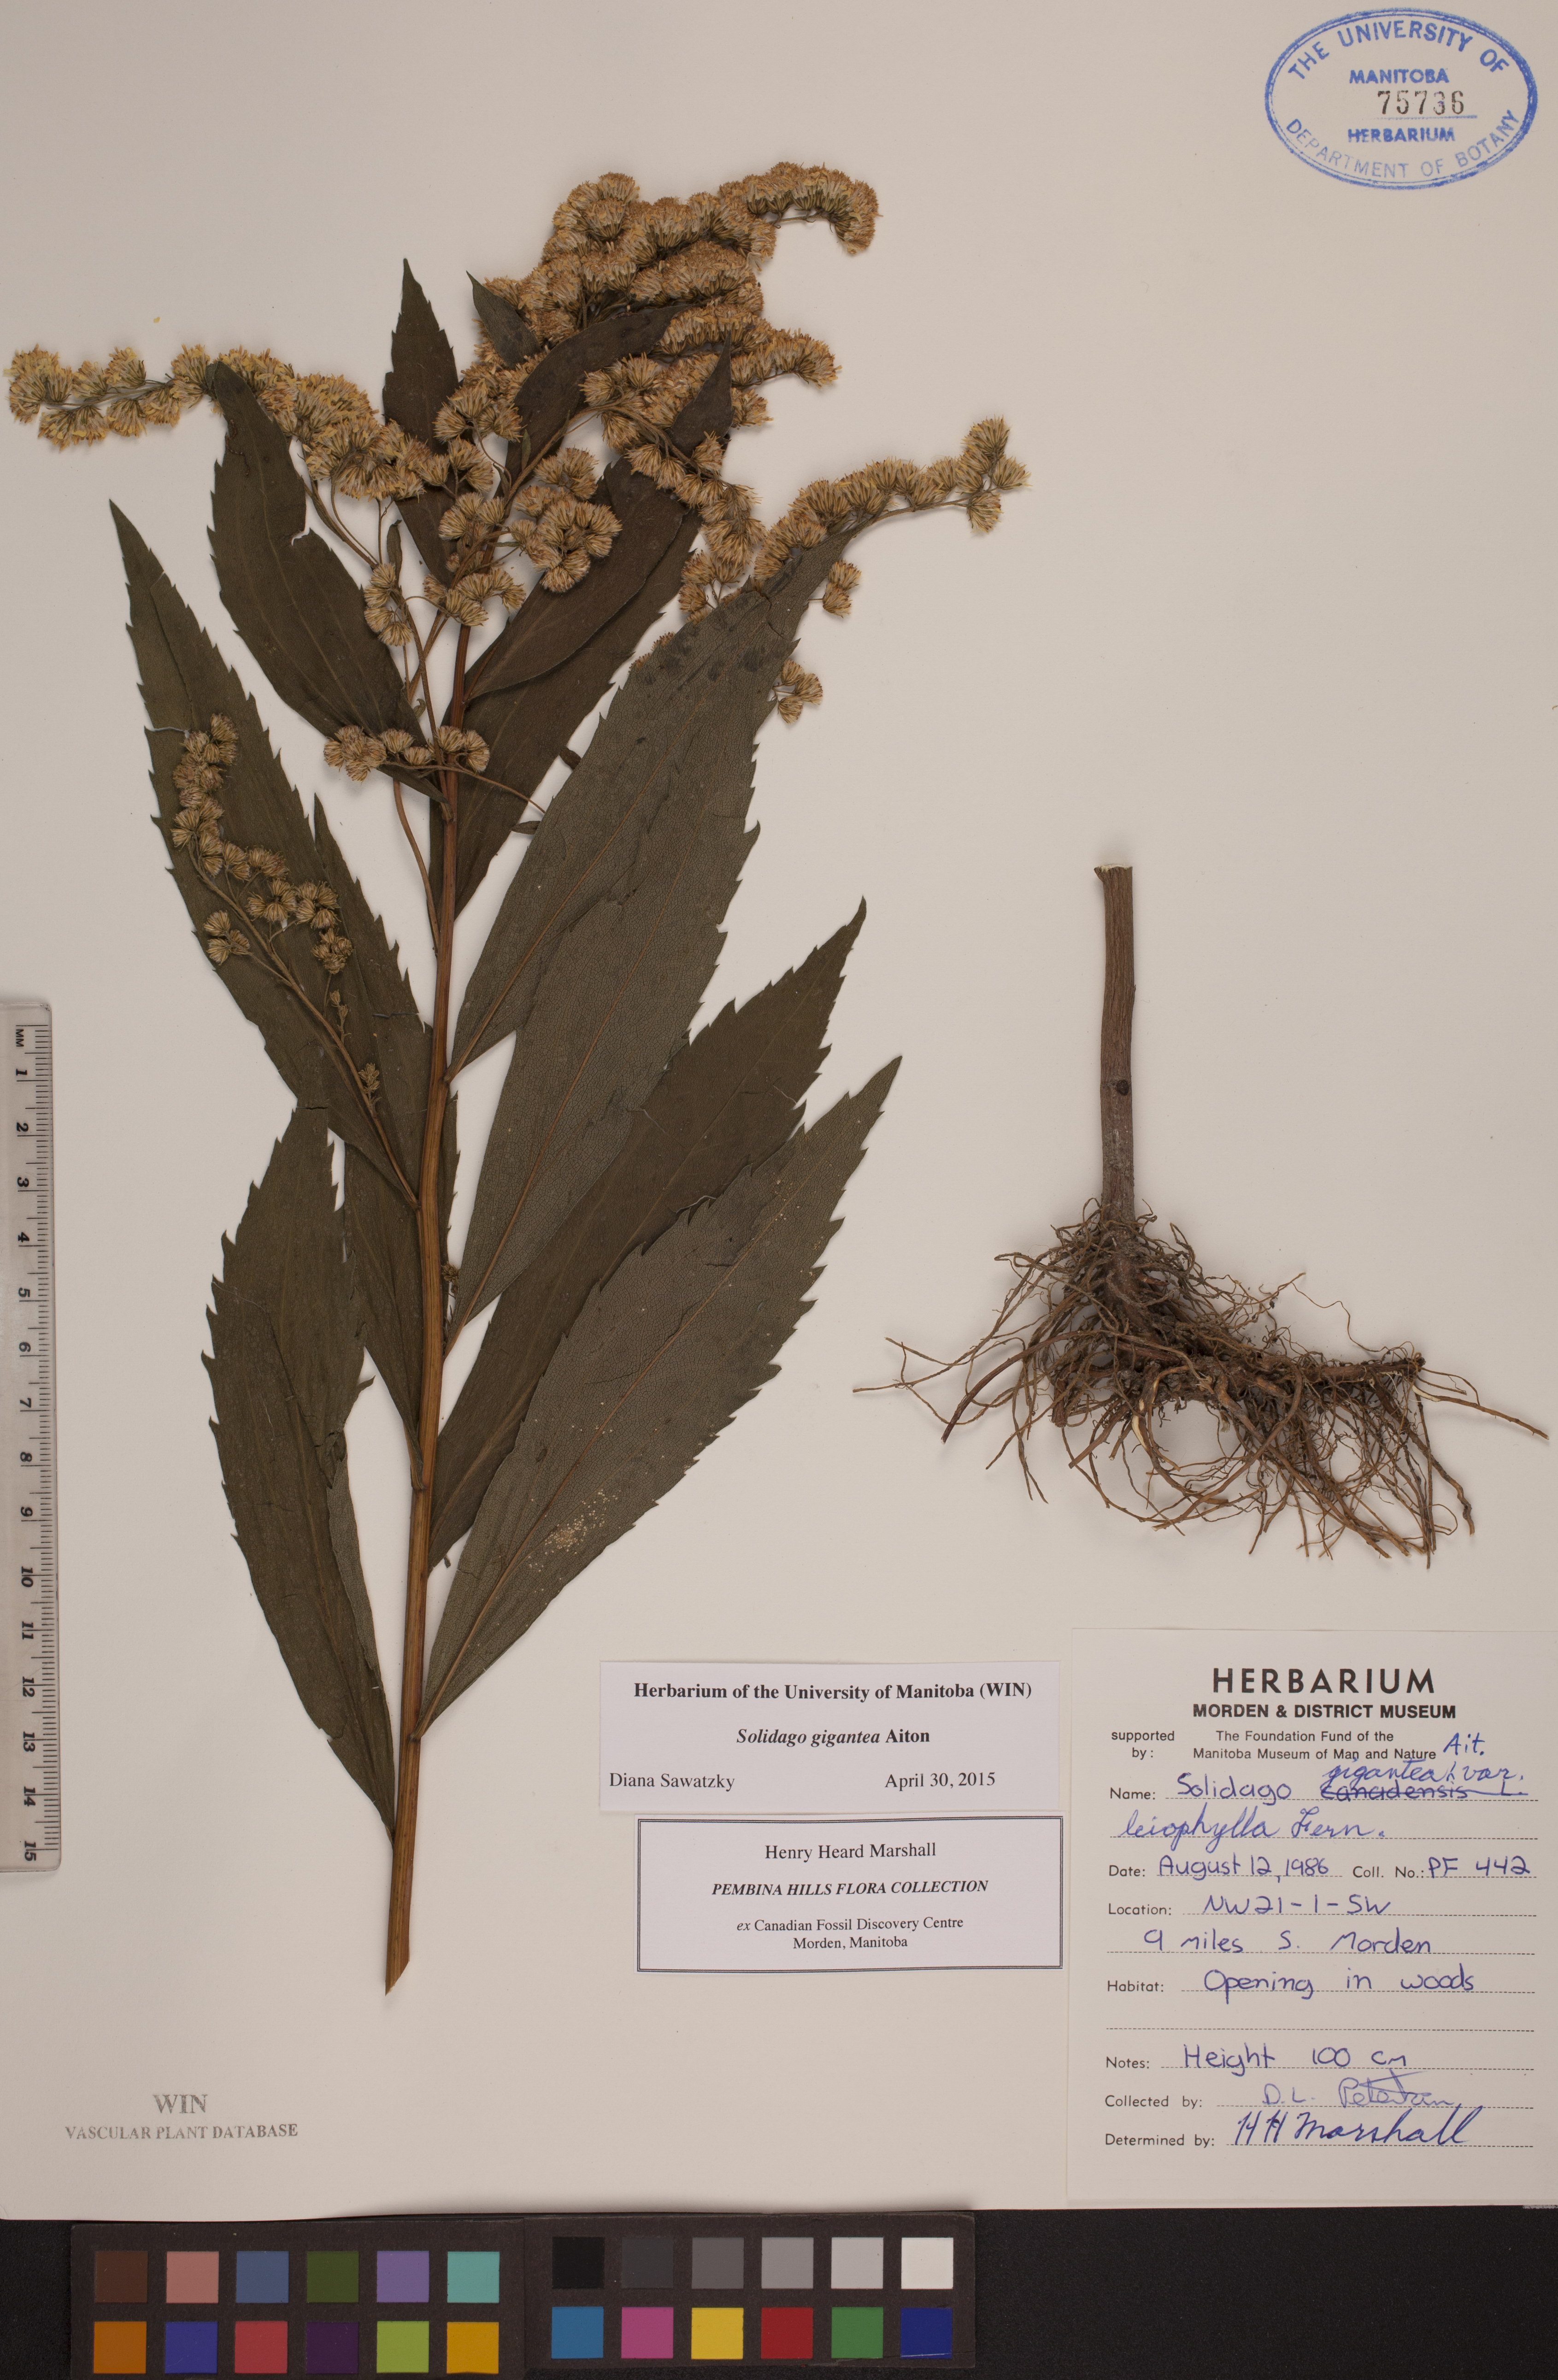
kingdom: Plantae
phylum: Tracheophyta
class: Magnoliopsida
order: Asterales
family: Asteraceae
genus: Solidago
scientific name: Solidago gigantea
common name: Giant goldenrod
